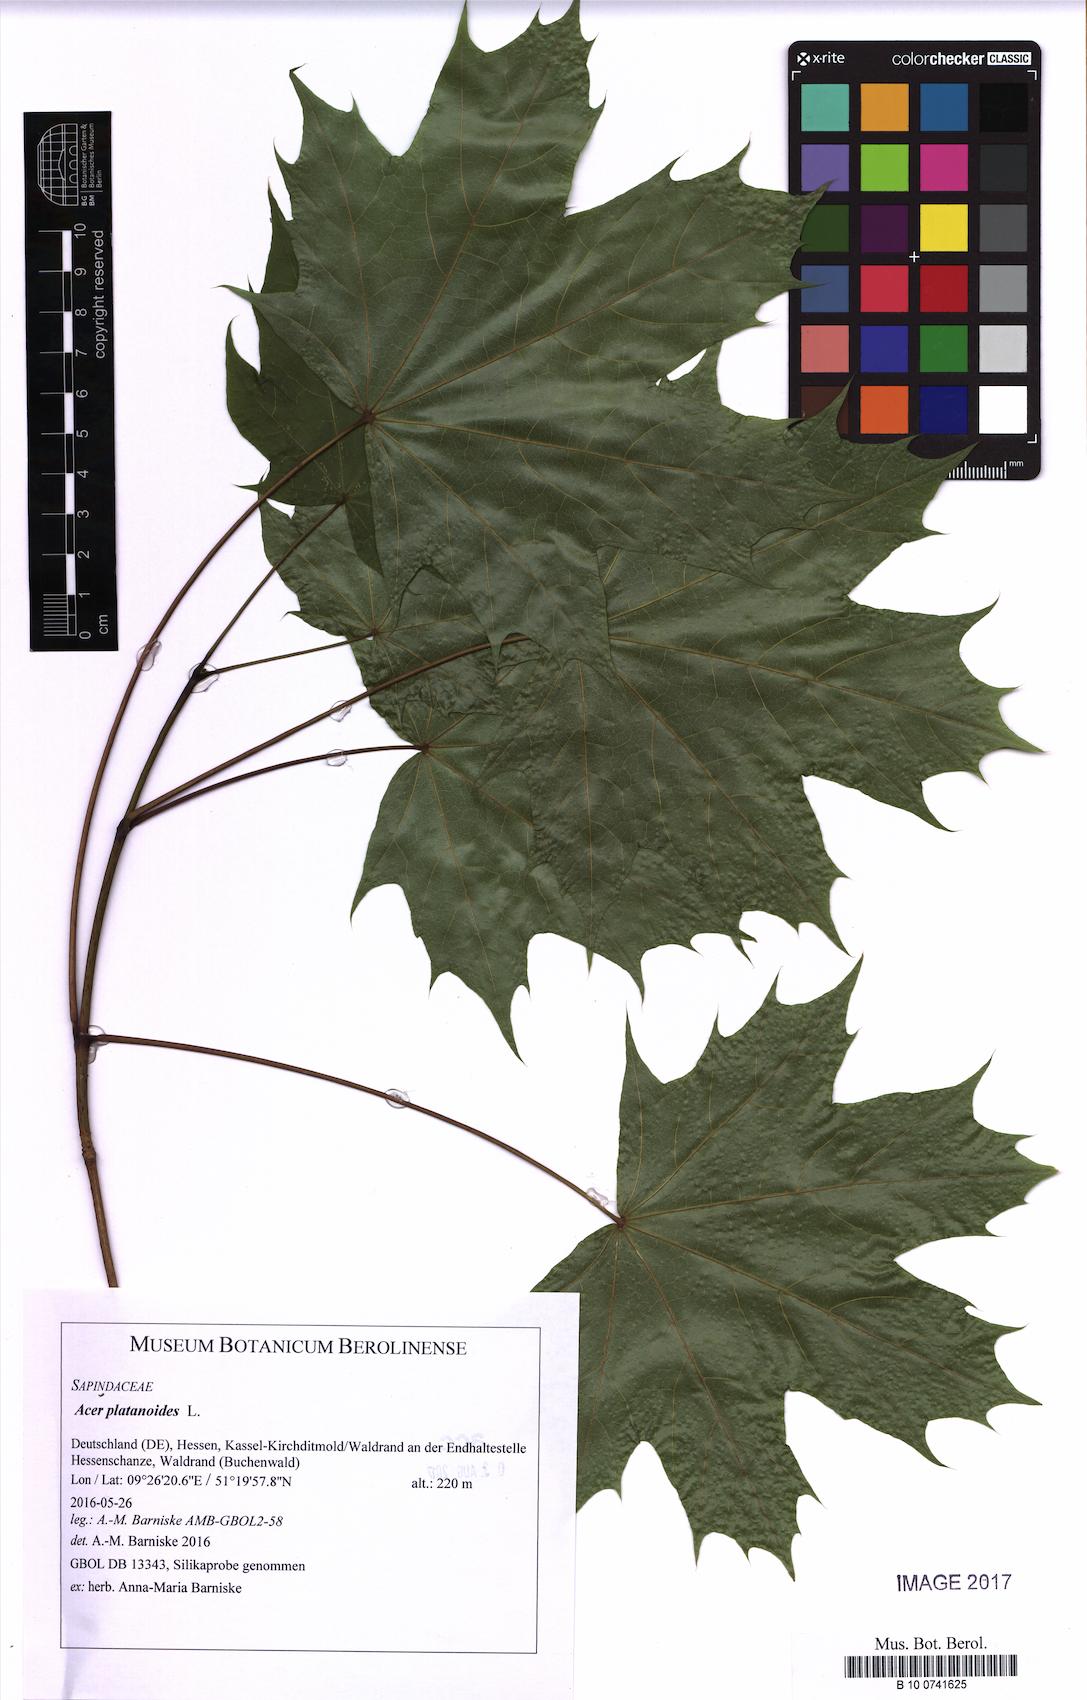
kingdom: Plantae
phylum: Tracheophyta
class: Magnoliopsida
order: Sapindales
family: Sapindaceae
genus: Acer
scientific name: Acer platanoides
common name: Norway maple
